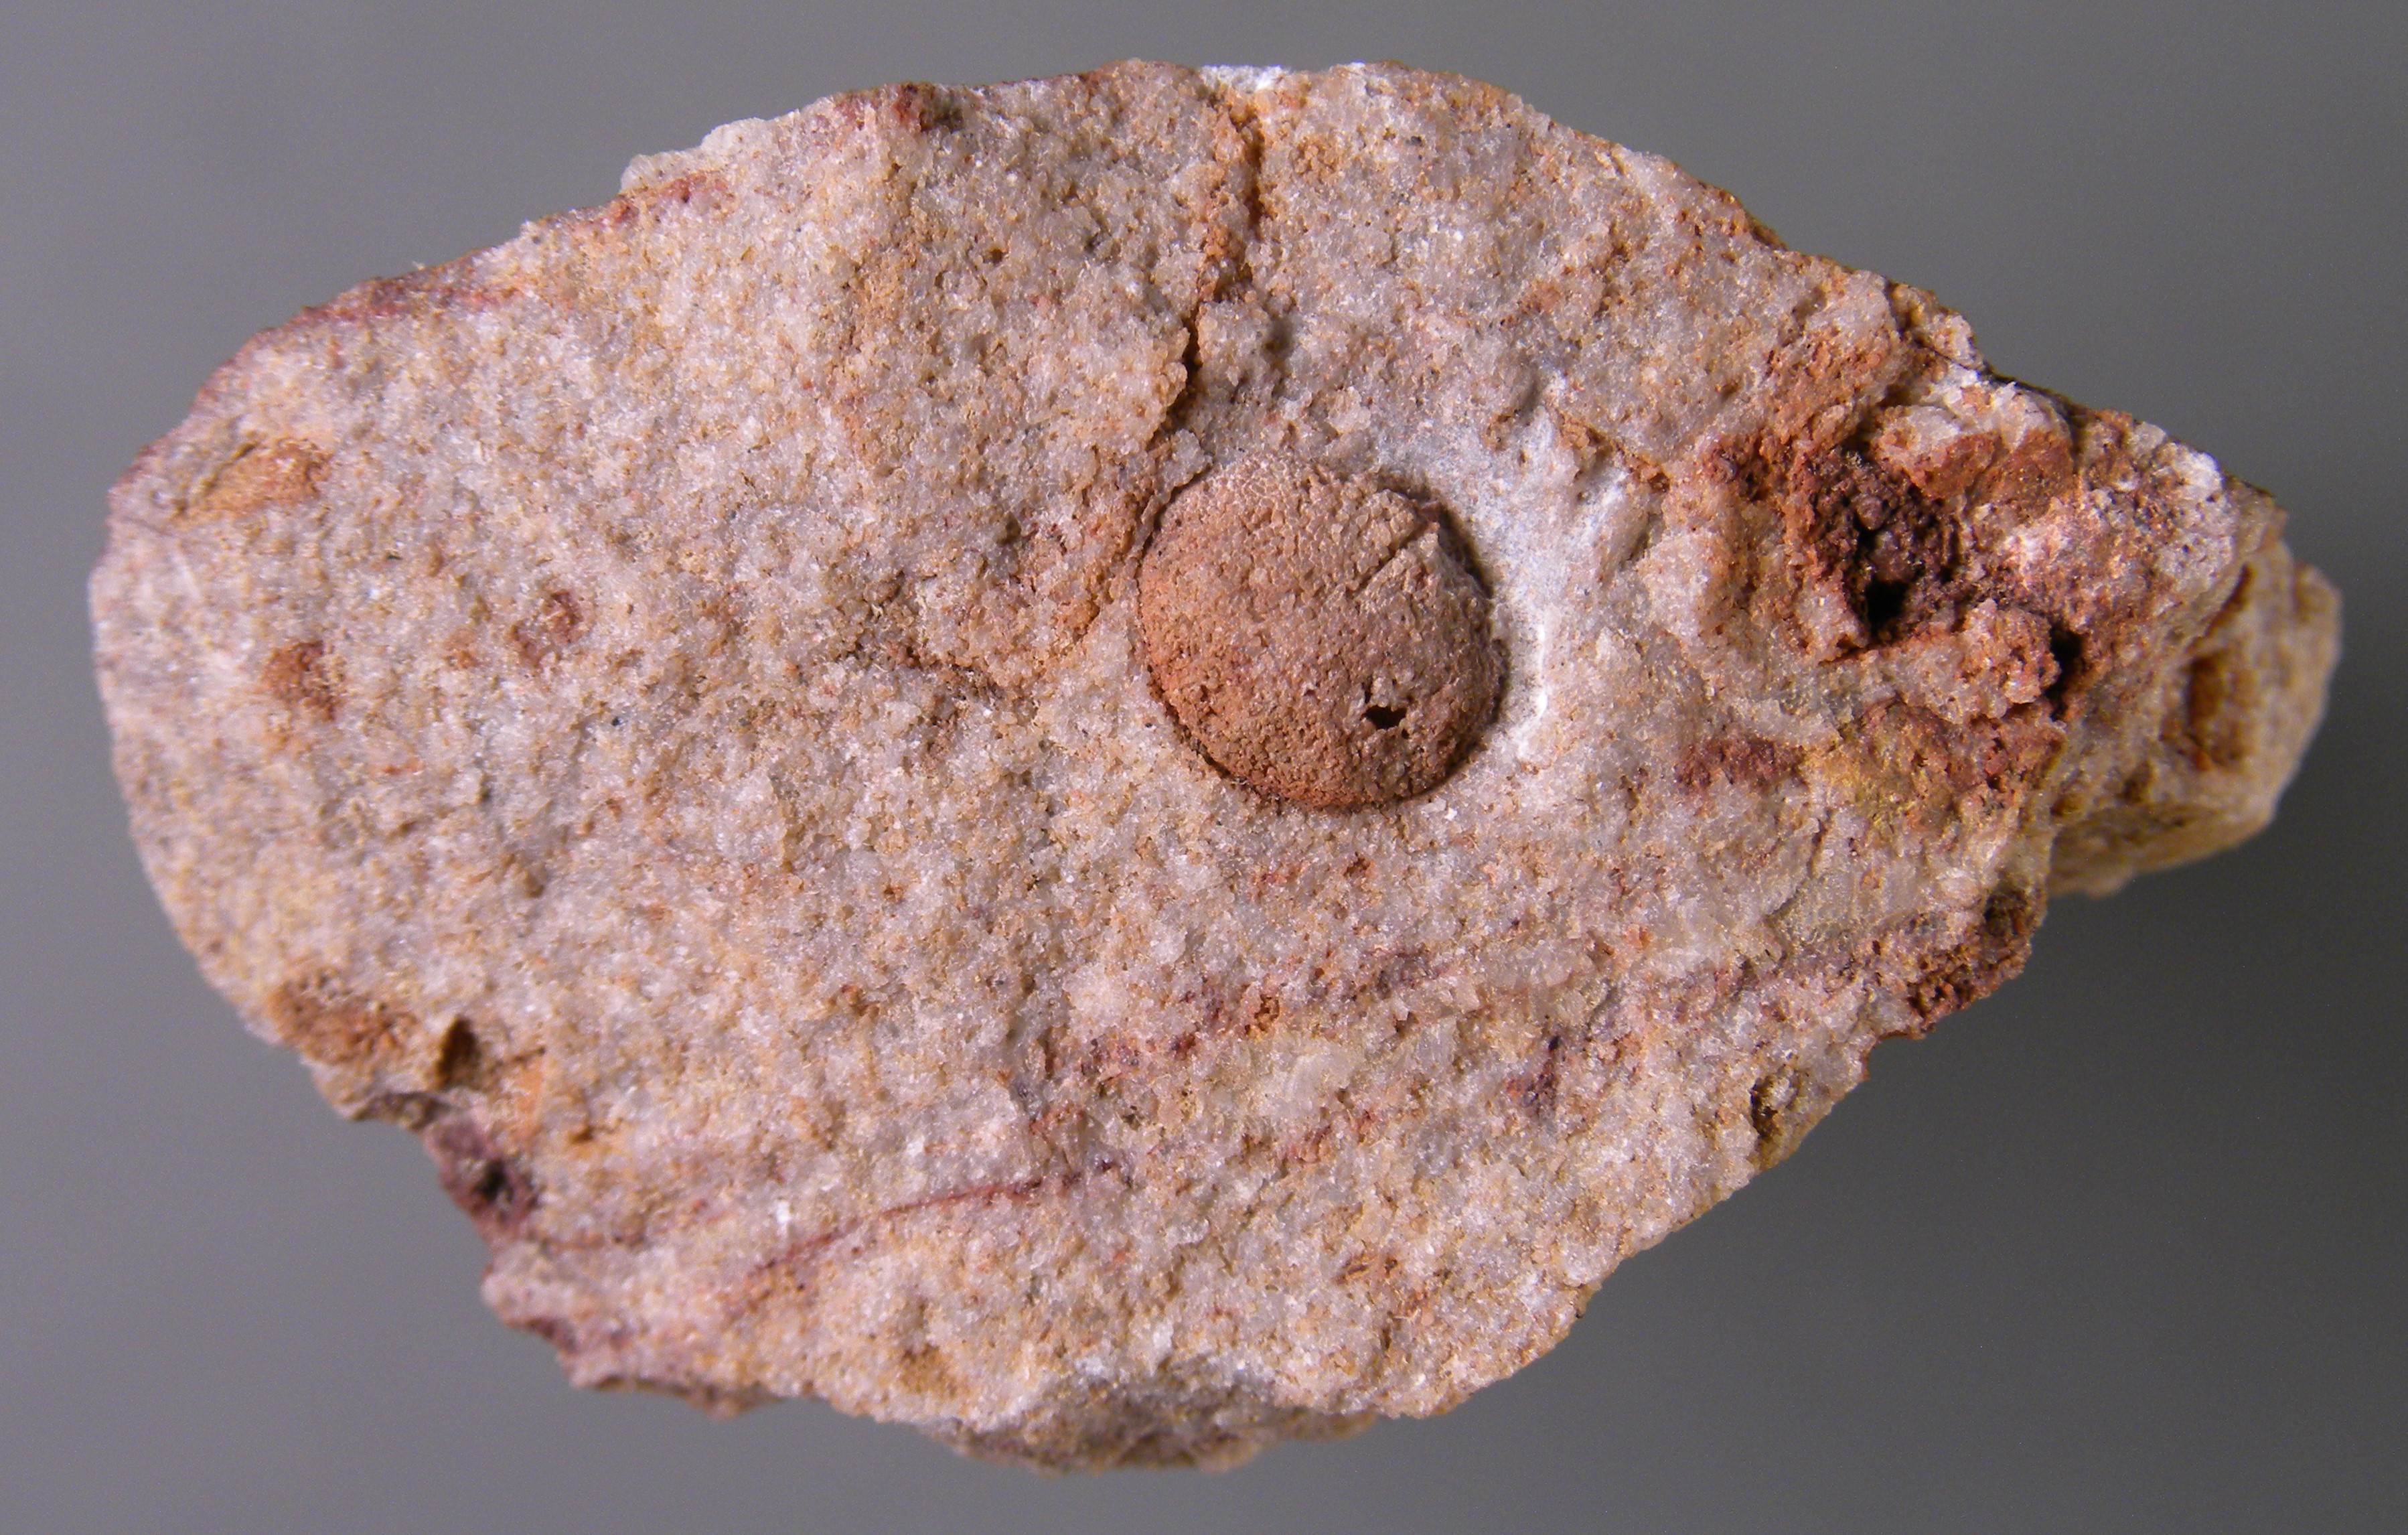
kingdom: Animalia
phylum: Brachiopoda
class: Rhynchonellata
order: Terebratulida
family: Mutationellidae
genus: Mutationella
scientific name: Mutationella
